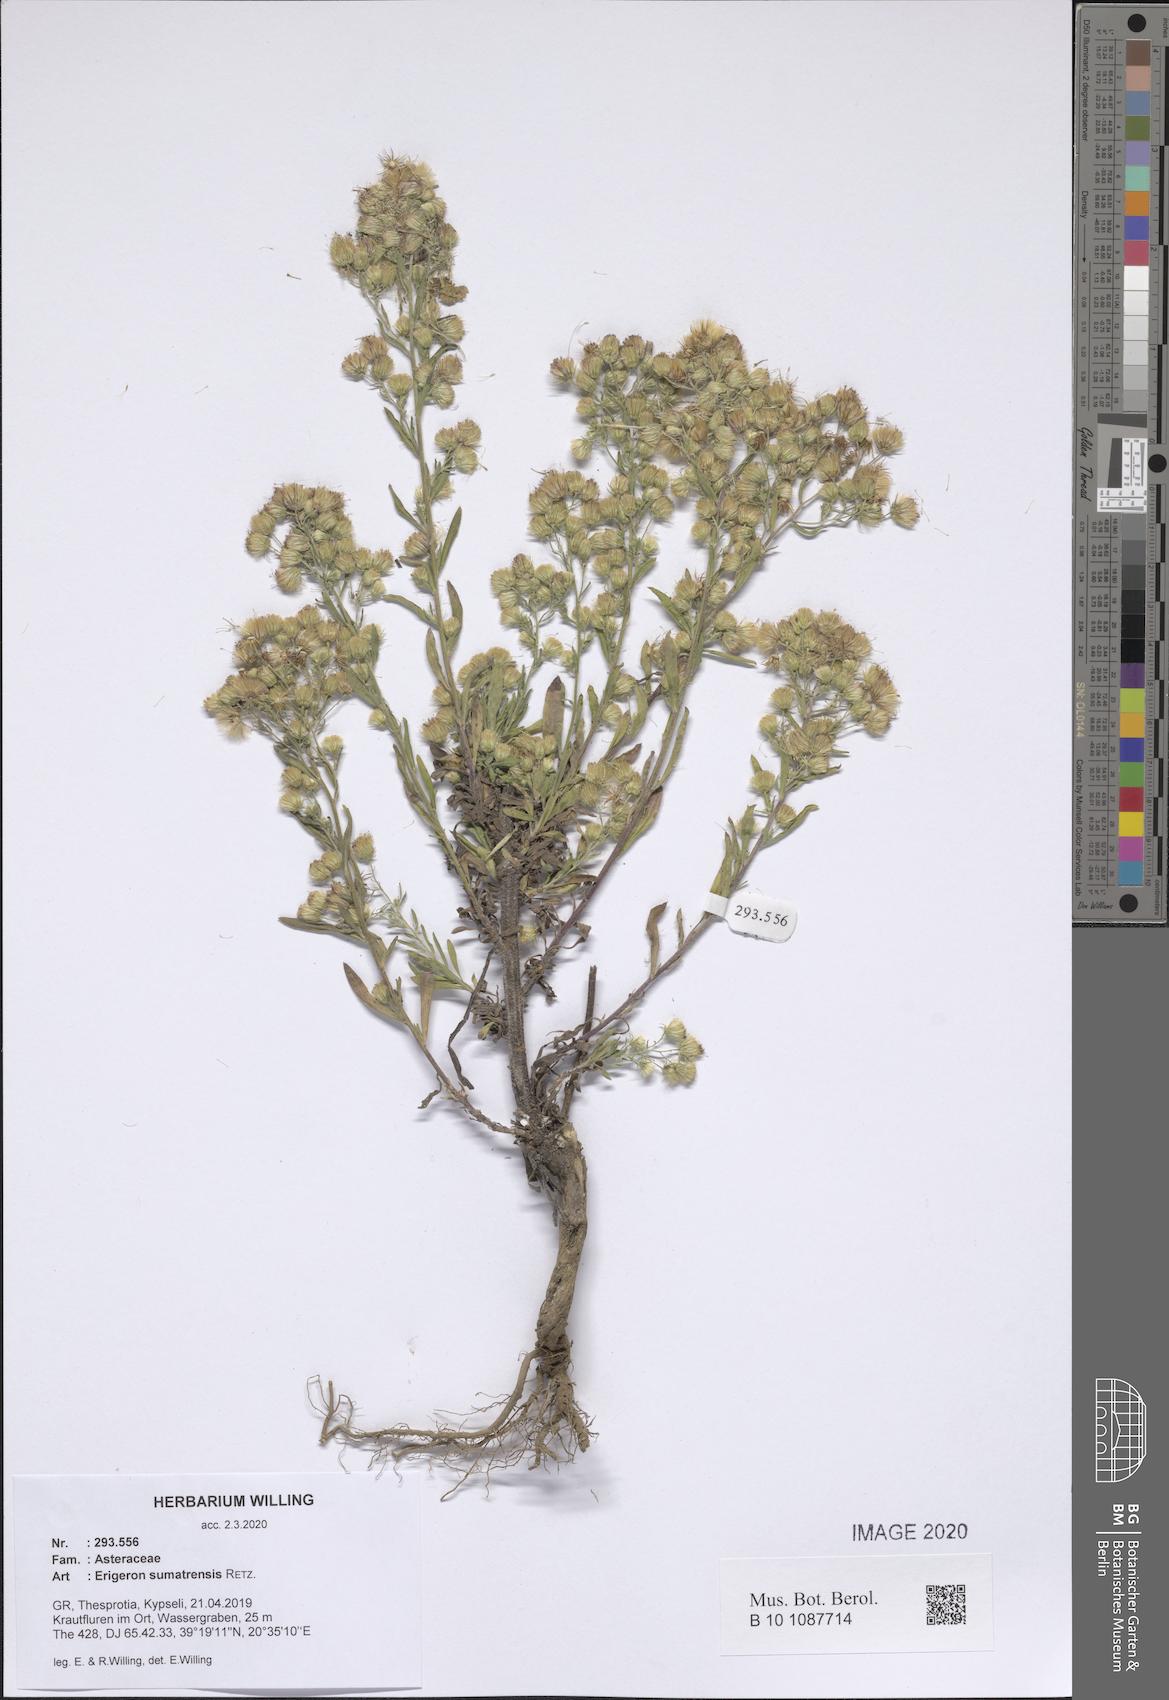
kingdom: Plantae
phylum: Tracheophyta
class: Magnoliopsida
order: Asterales
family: Asteraceae
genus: Erigeron
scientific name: Erigeron sumatrensis
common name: Daisy
